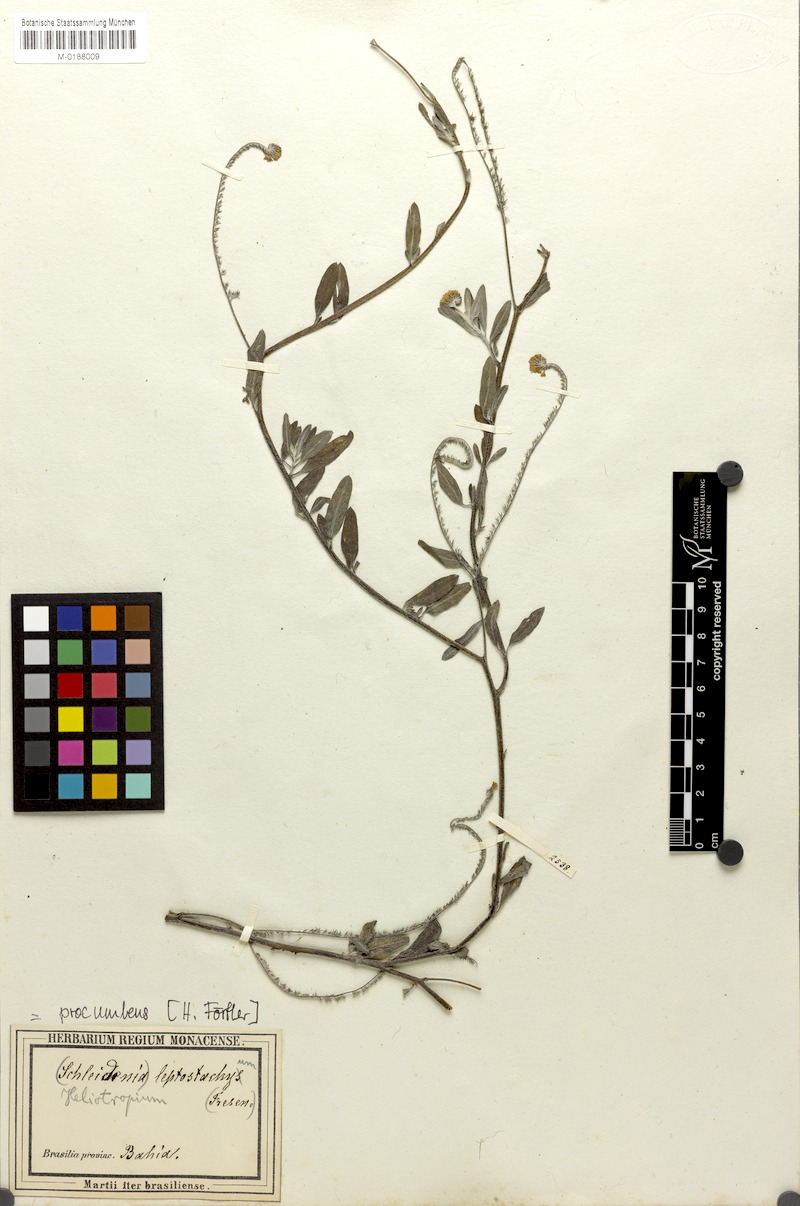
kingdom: Plantae
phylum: Tracheophyta
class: Magnoliopsida
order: Boraginales
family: Heliotropiaceae
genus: Euploca
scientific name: Euploca procumbens
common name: Fourspike heliotrope
